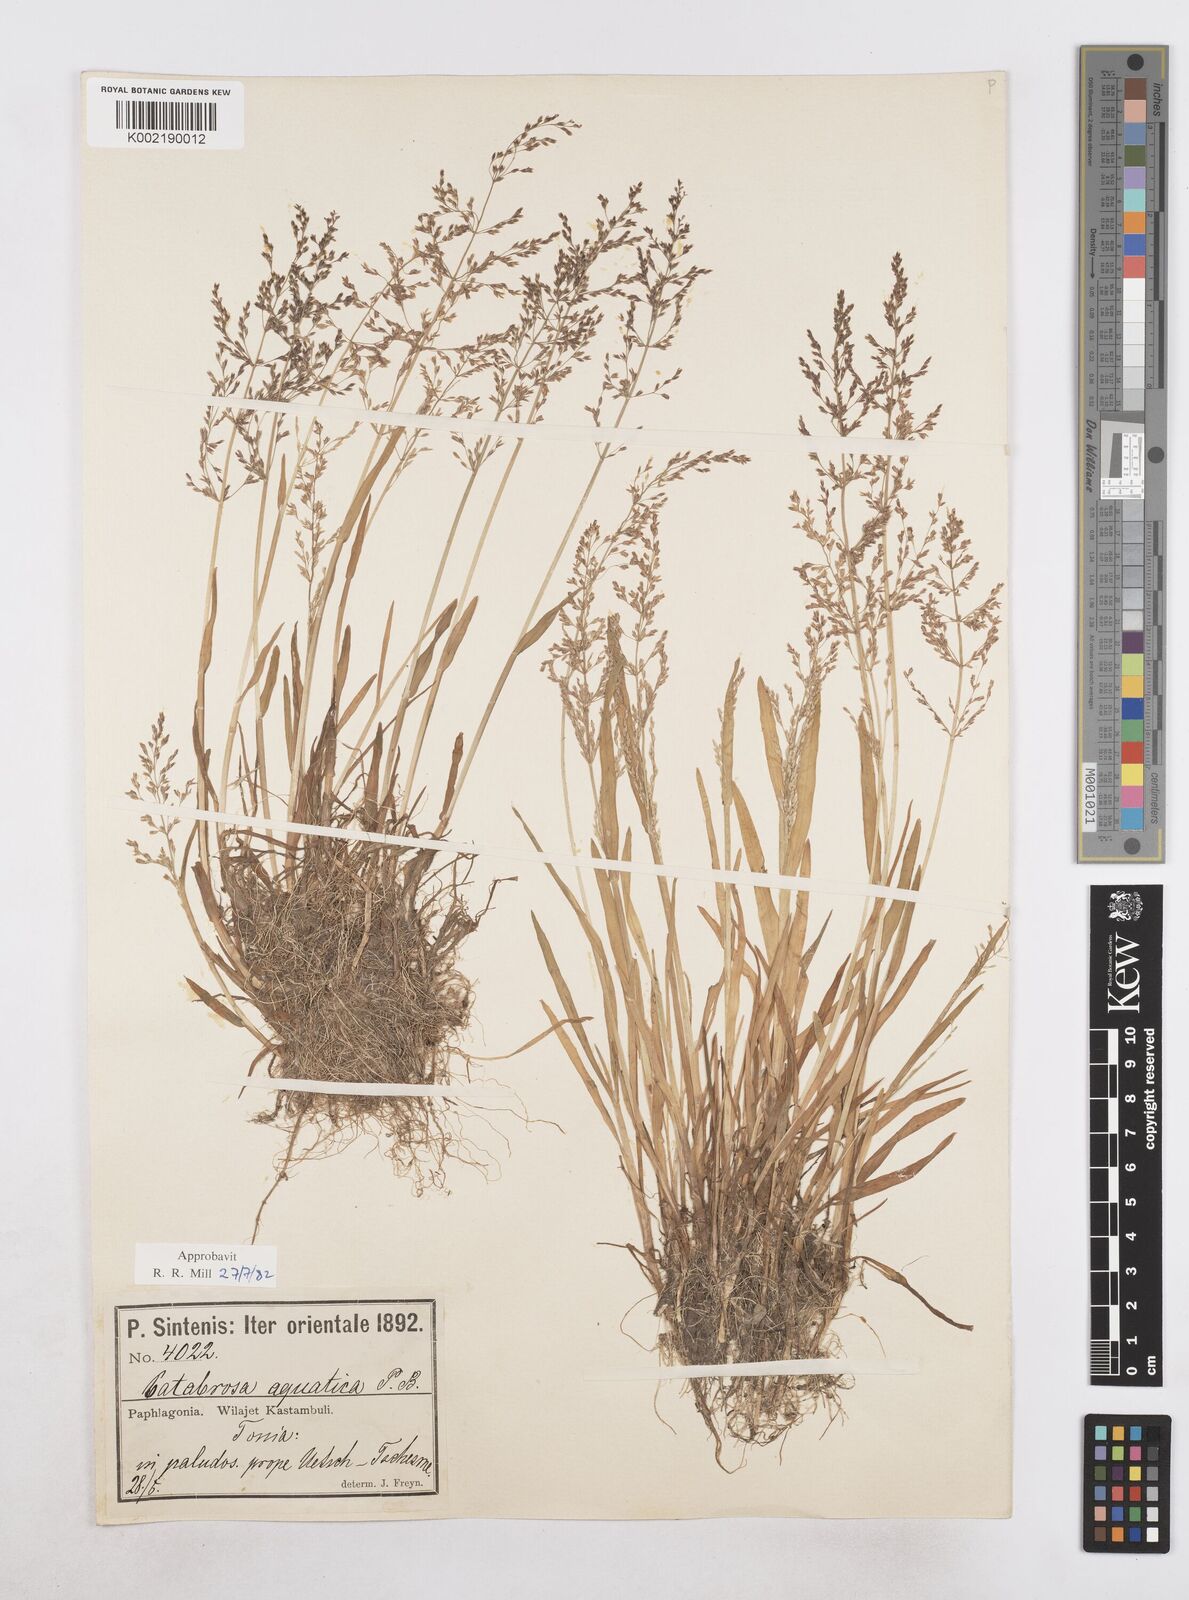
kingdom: Plantae
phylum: Tracheophyta
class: Liliopsida
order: Poales
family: Poaceae
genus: Catabrosa
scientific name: Catabrosa aquatica
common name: Whorl-grass
